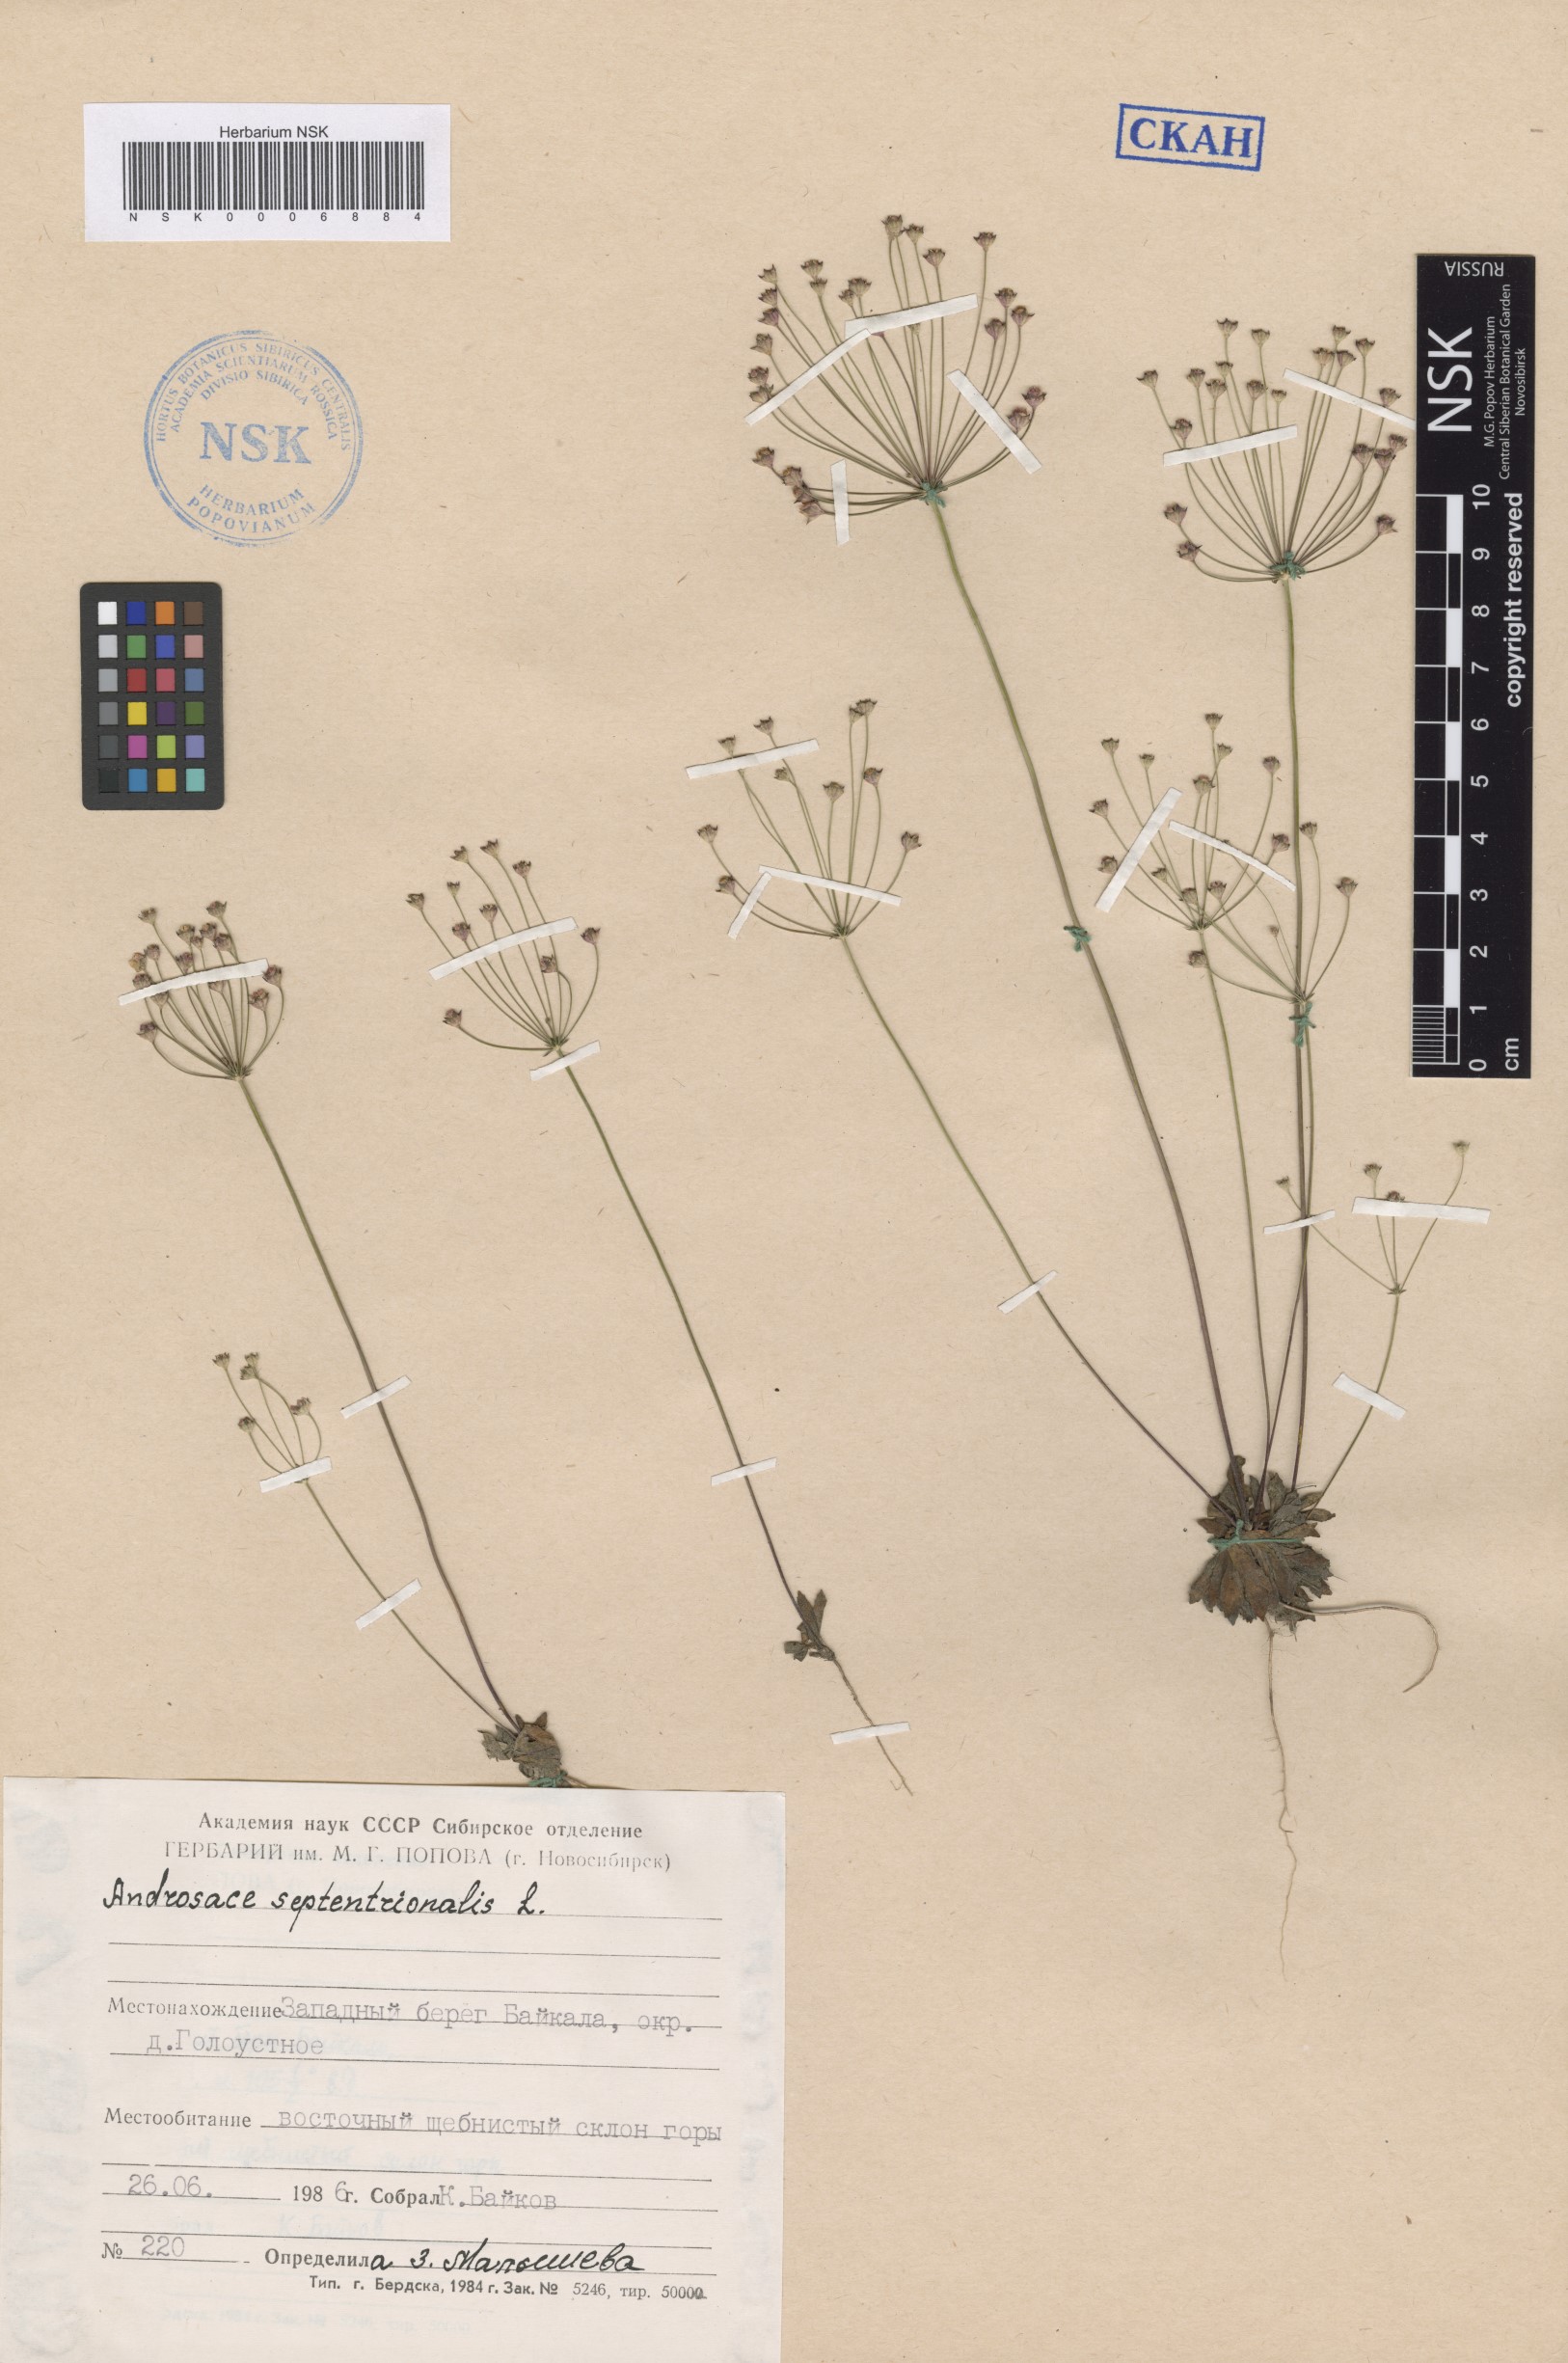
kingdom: Plantae
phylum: Tracheophyta
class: Magnoliopsida
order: Ericales
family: Primulaceae
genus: Androsace
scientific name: Androsace septentrionalis
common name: Hairy northern fairy-candelabra
